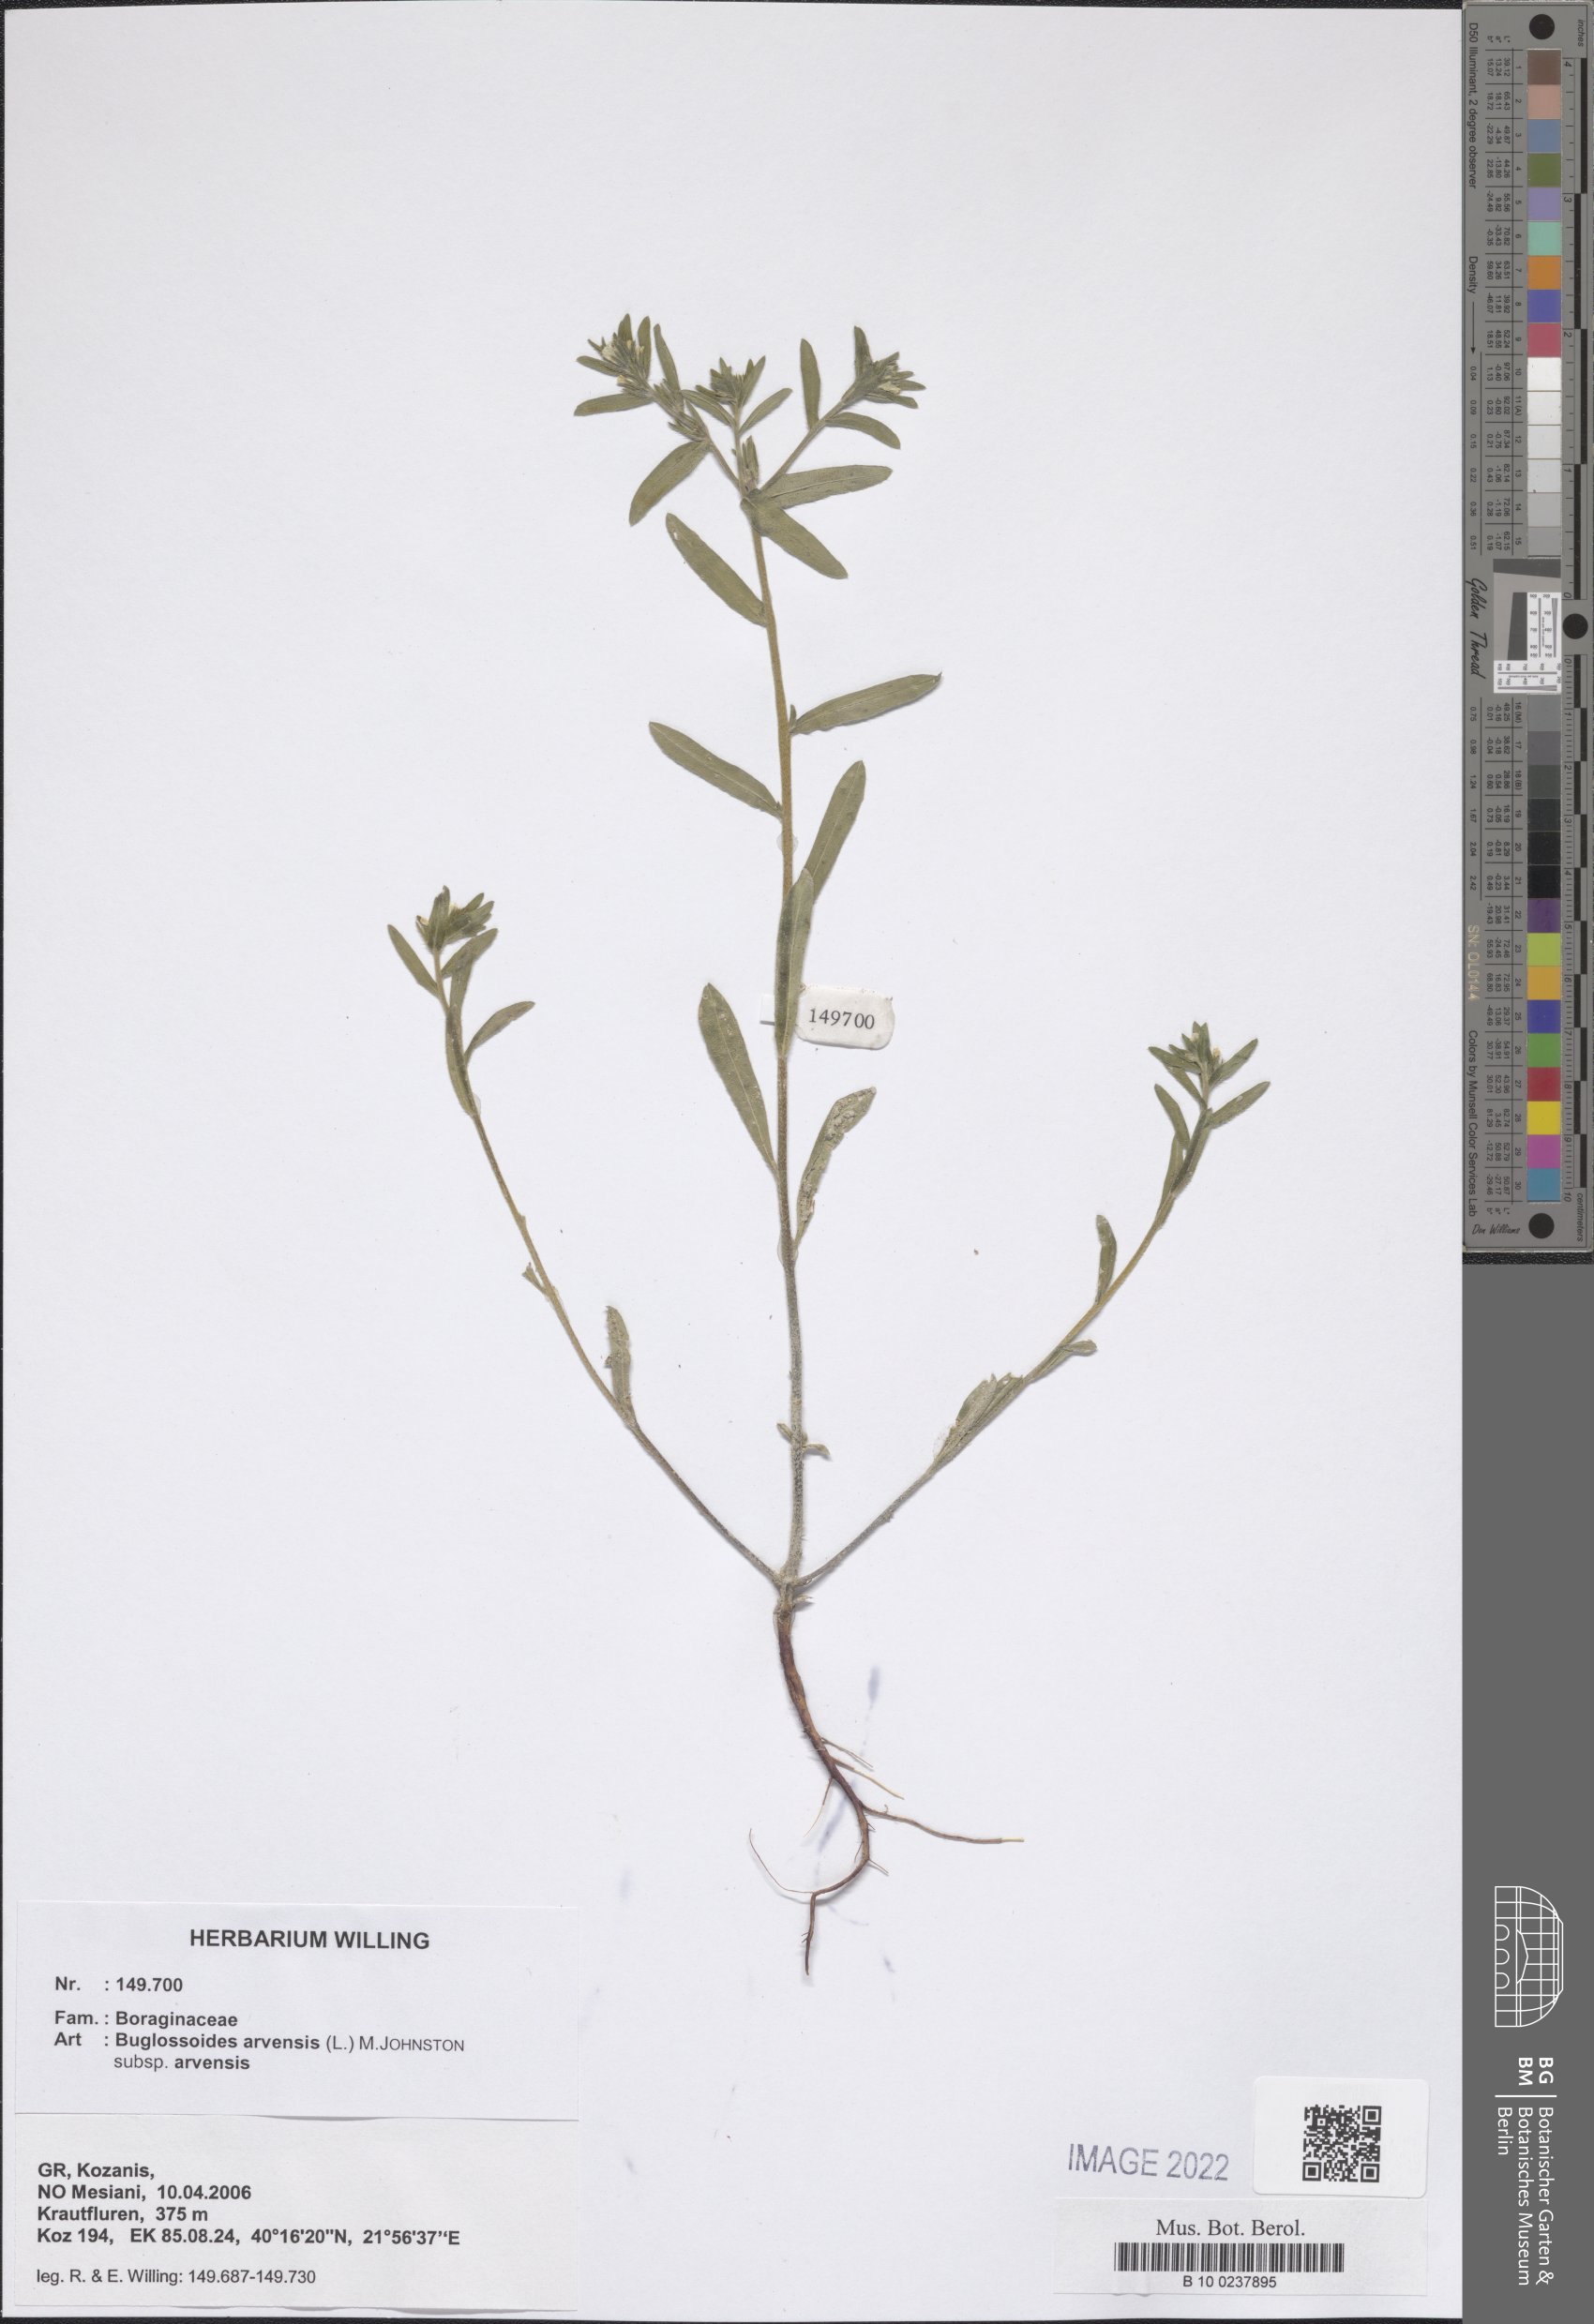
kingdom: Plantae
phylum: Tracheophyta
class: Magnoliopsida
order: Boraginales
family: Boraginaceae
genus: Buglossoides
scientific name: Buglossoides arvensis
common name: Corn gromwell
